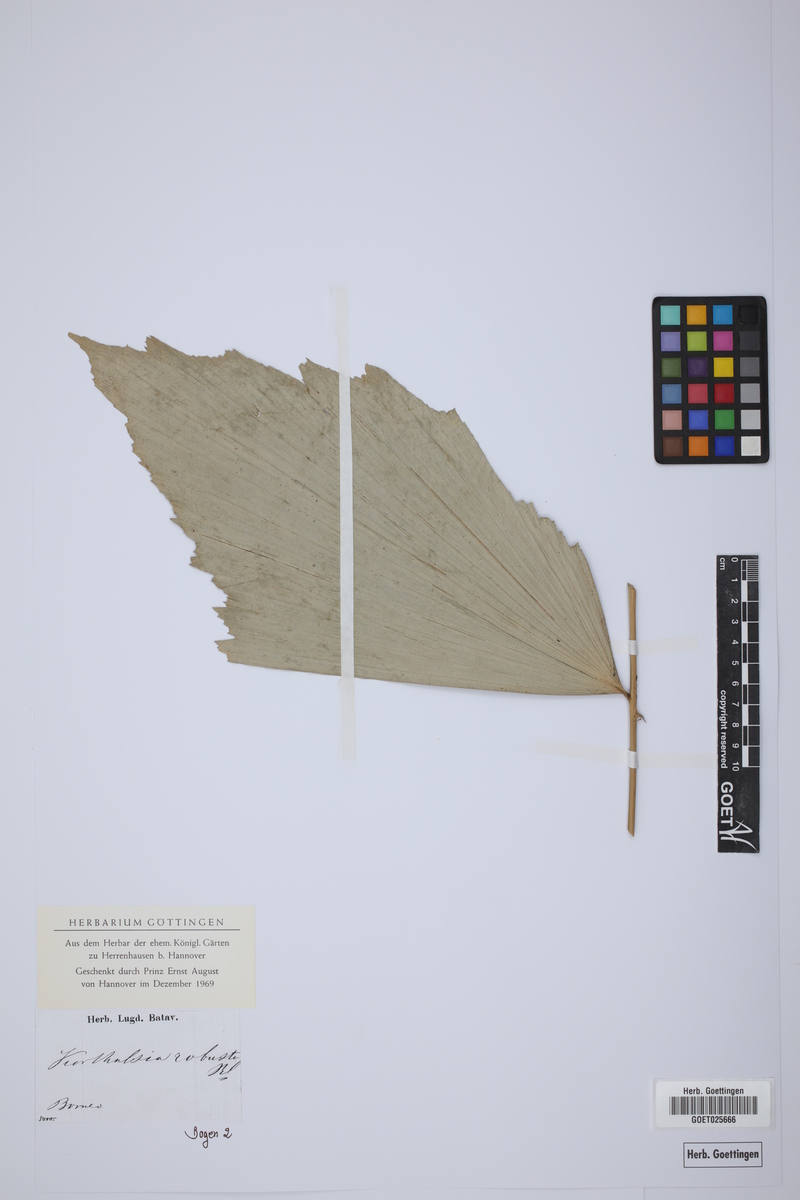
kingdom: Plantae
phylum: Tracheophyta
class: Liliopsida
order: Arecales
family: Arecaceae
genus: Korthalsia
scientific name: Korthalsia robusta
